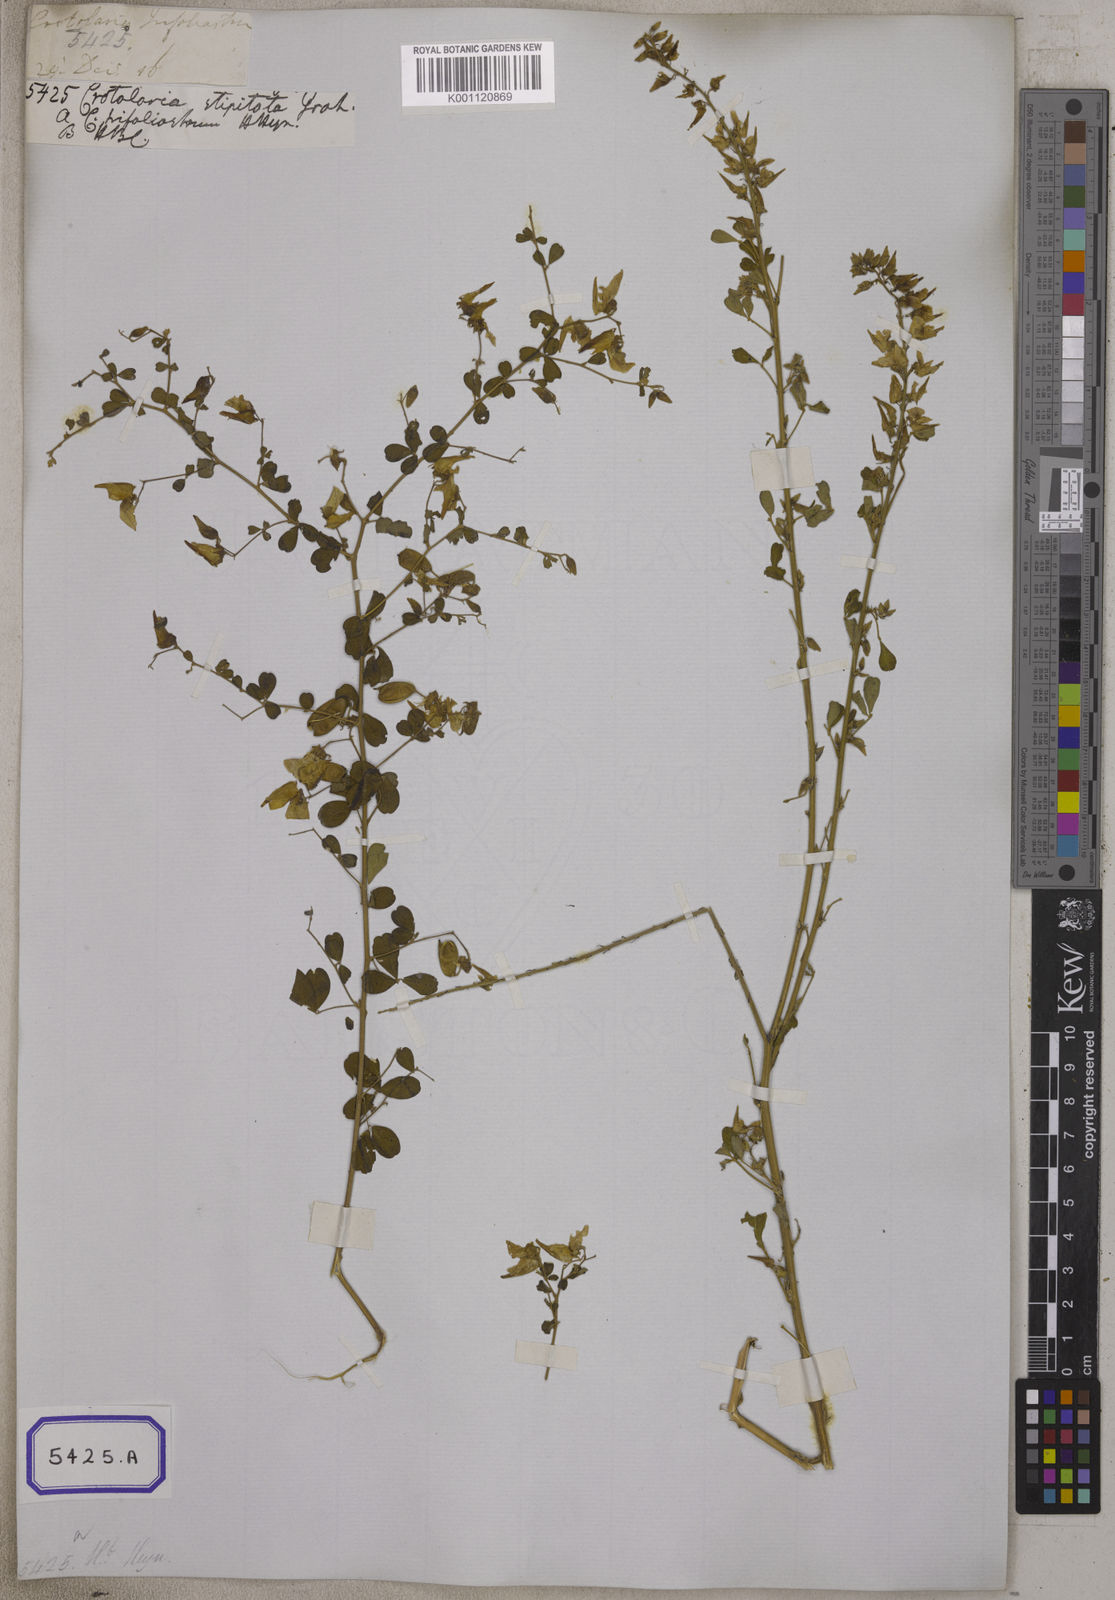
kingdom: Plantae
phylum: Tracheophyta
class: Magnoliopsida
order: Fabales
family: Fabaceae
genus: Crotalaria
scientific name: Crotalaria
